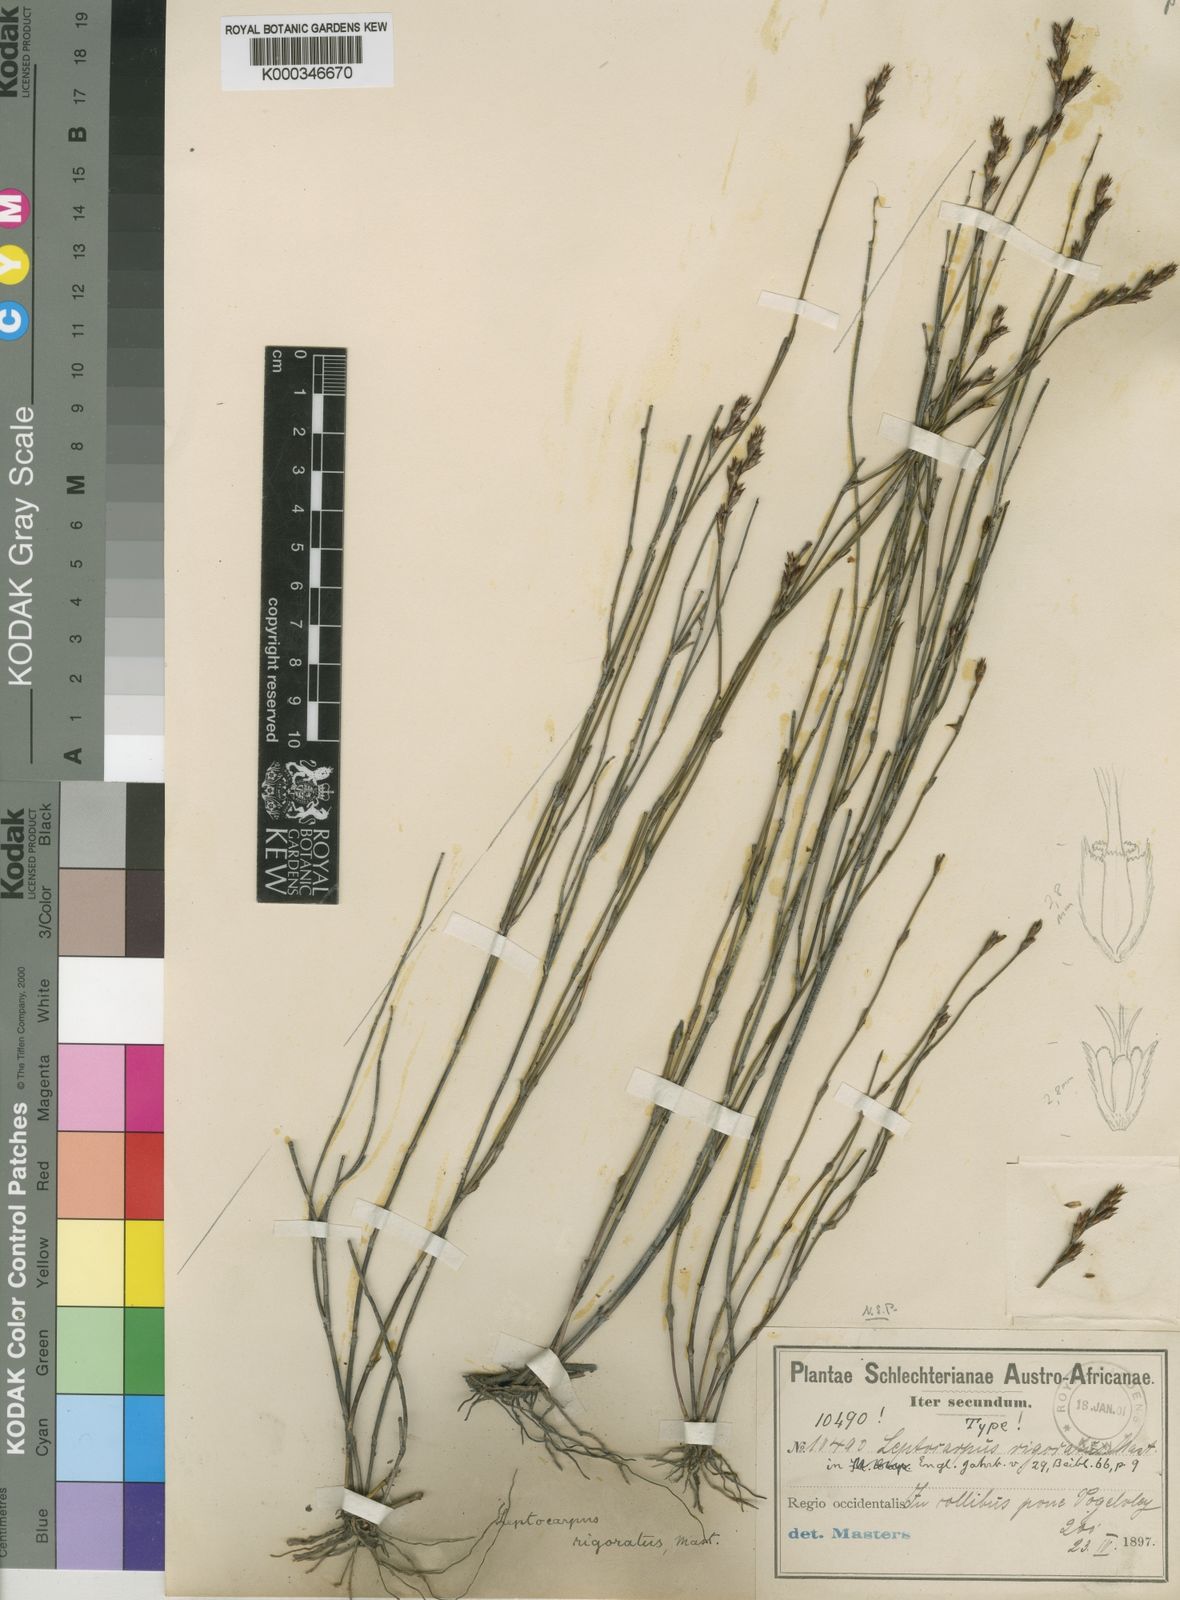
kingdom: Plantae
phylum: Tracheophyta
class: Liliopsida
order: Poales
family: Restionaceae
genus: Restio
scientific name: Restio rigoratus
